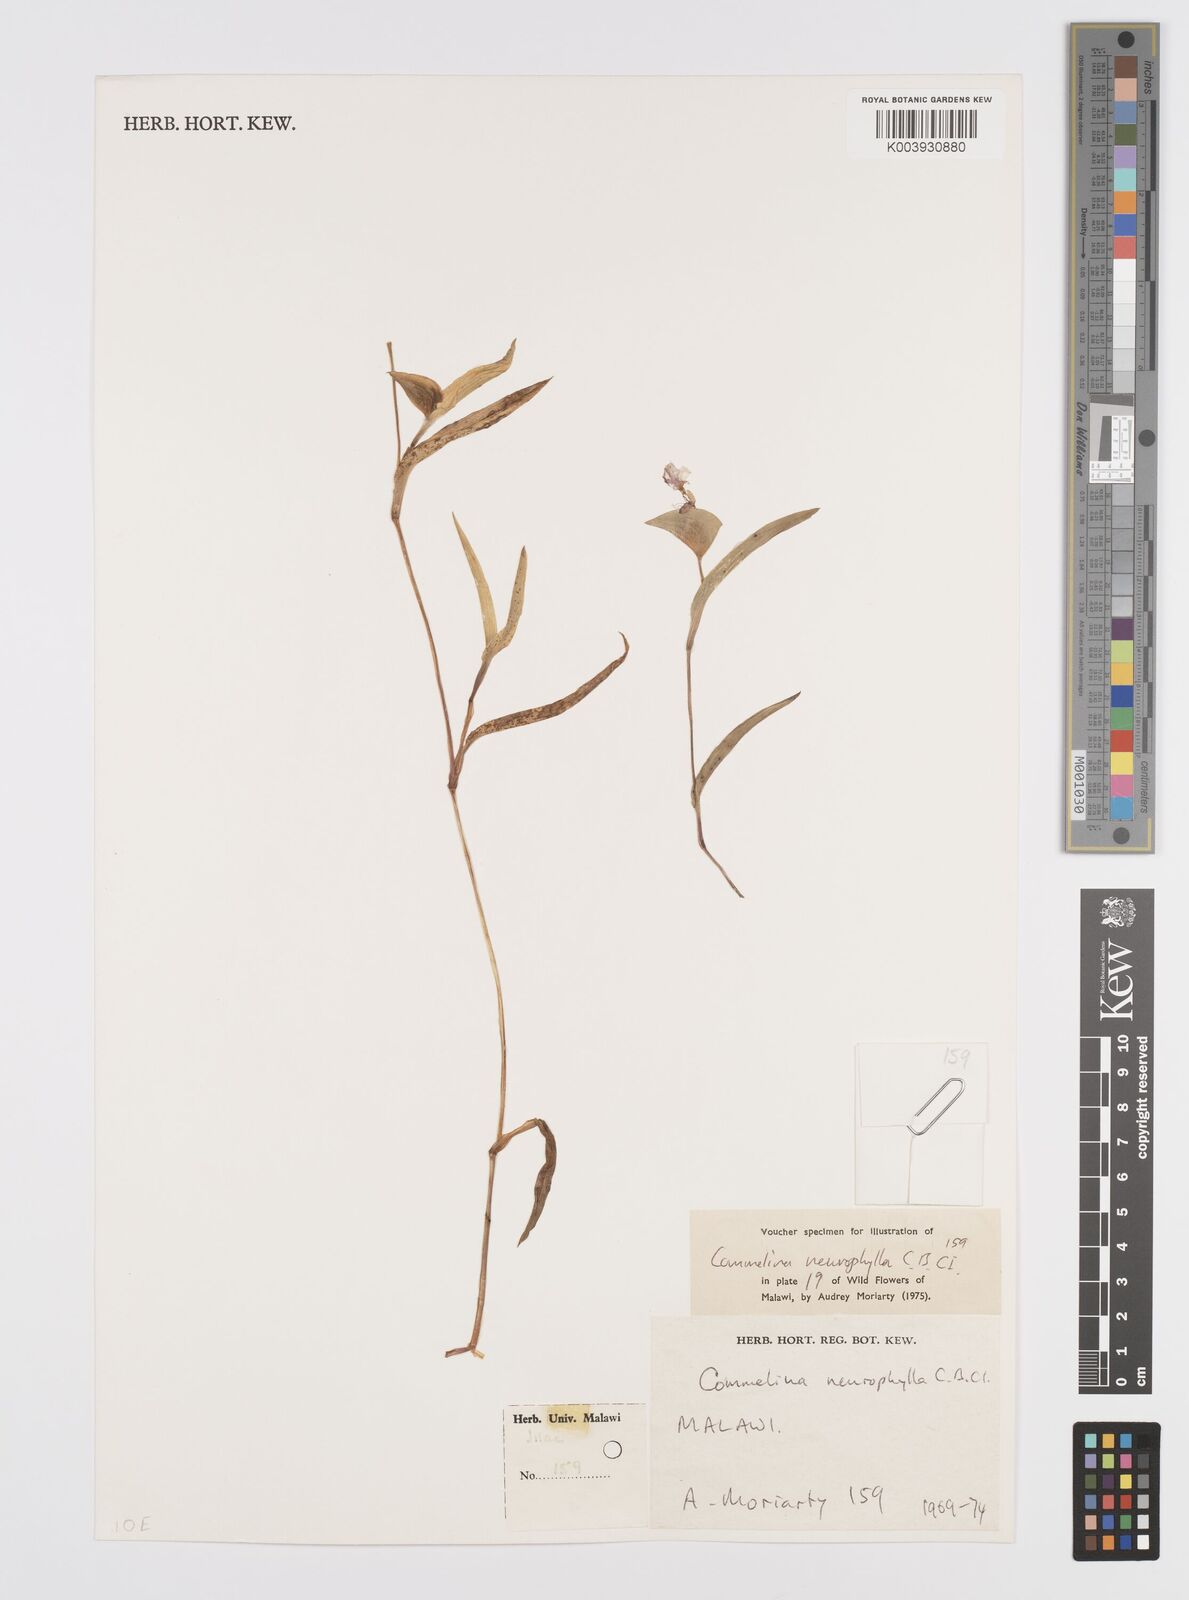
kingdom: Plantae
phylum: Tracheophyta
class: Liliopsida
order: Commelinales
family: Commelinaceae
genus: Commelina
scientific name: Commelina neurophylla
